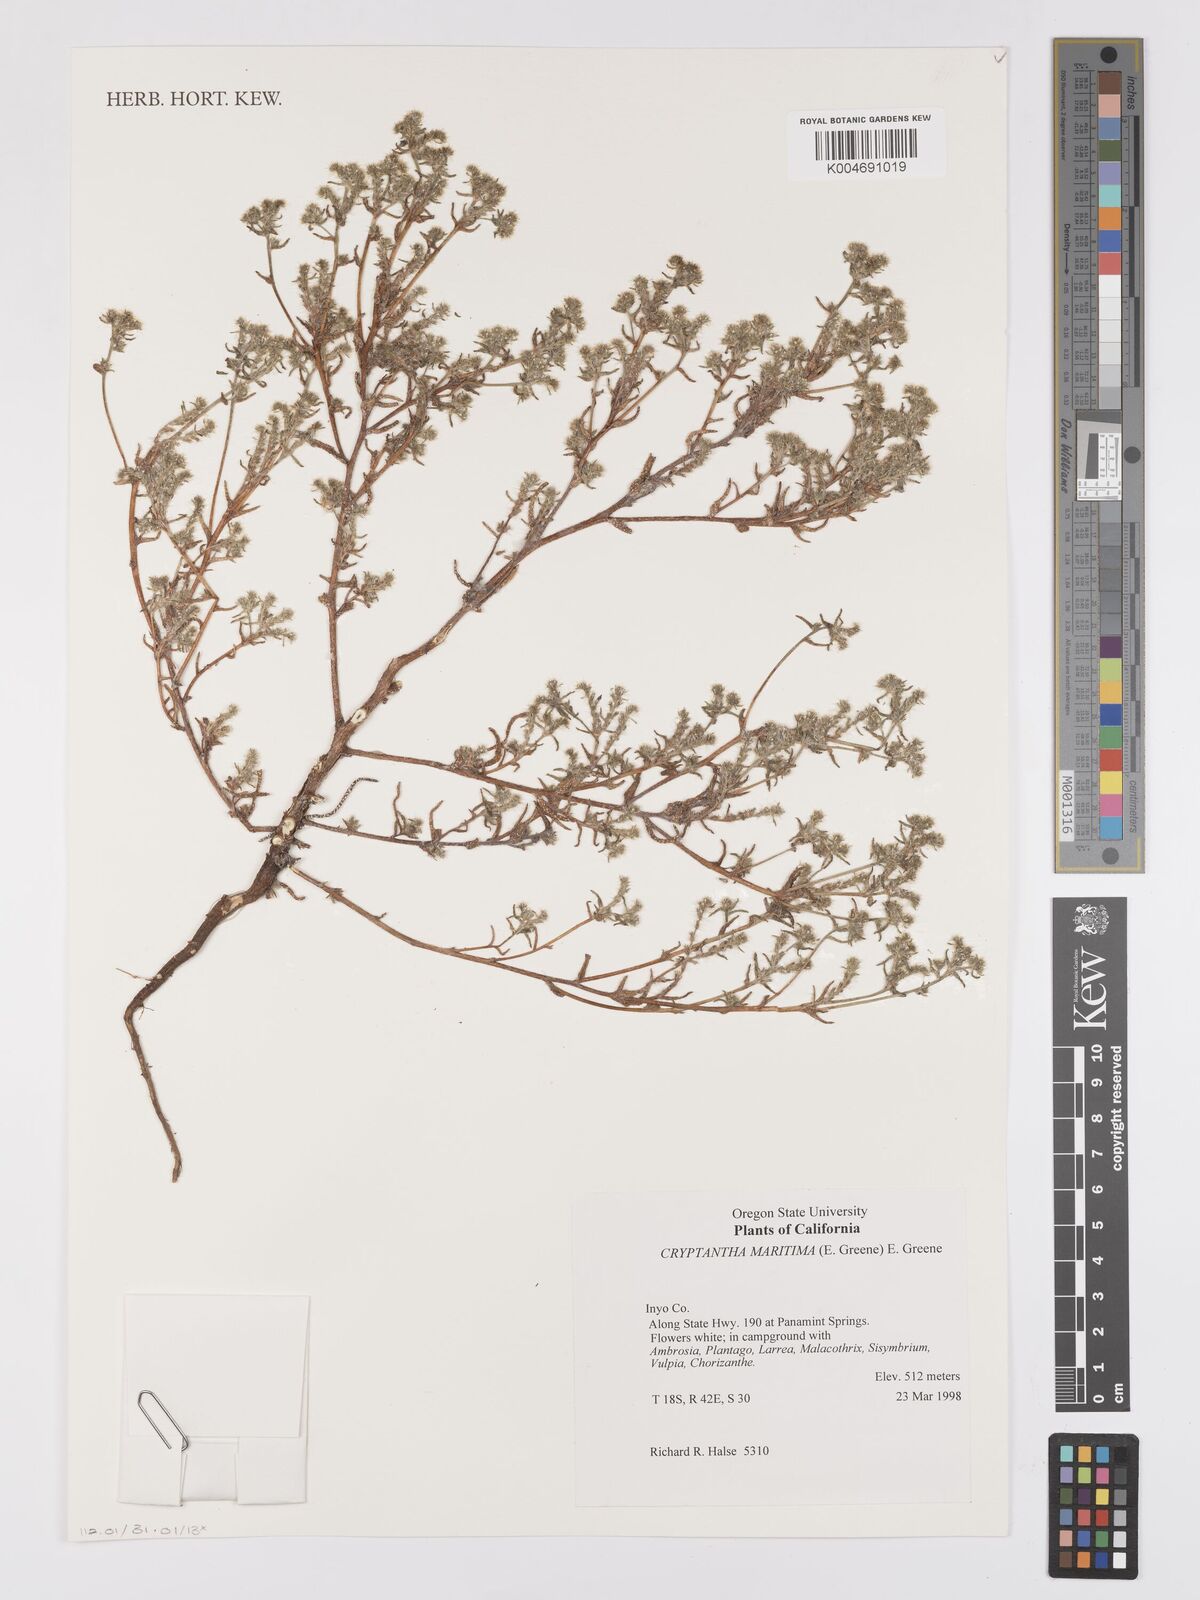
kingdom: Plantae
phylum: Tracheophyta
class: Magnoliopsida
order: Boraginales
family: Boraginaceae
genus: Cryptantha
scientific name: Cryptantha maritima
